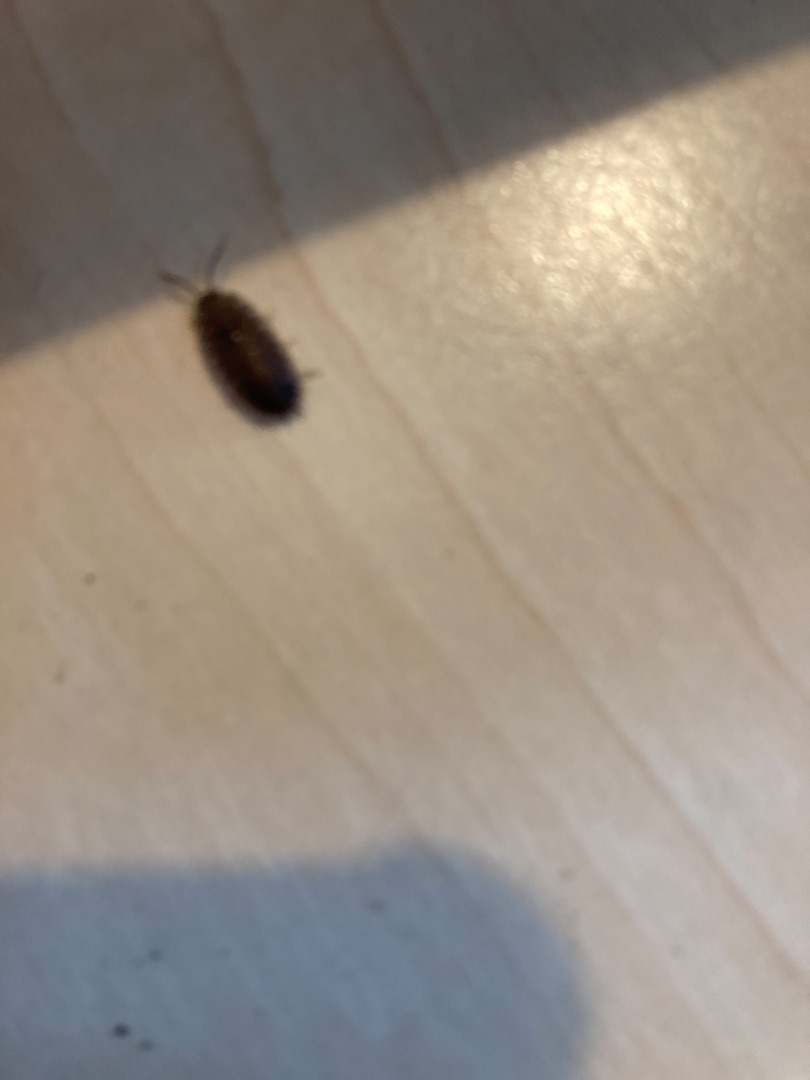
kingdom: Animalia
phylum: Arthropoda
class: Malacostraca
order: Isopoda
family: Oniscidae
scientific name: Oniscidae
